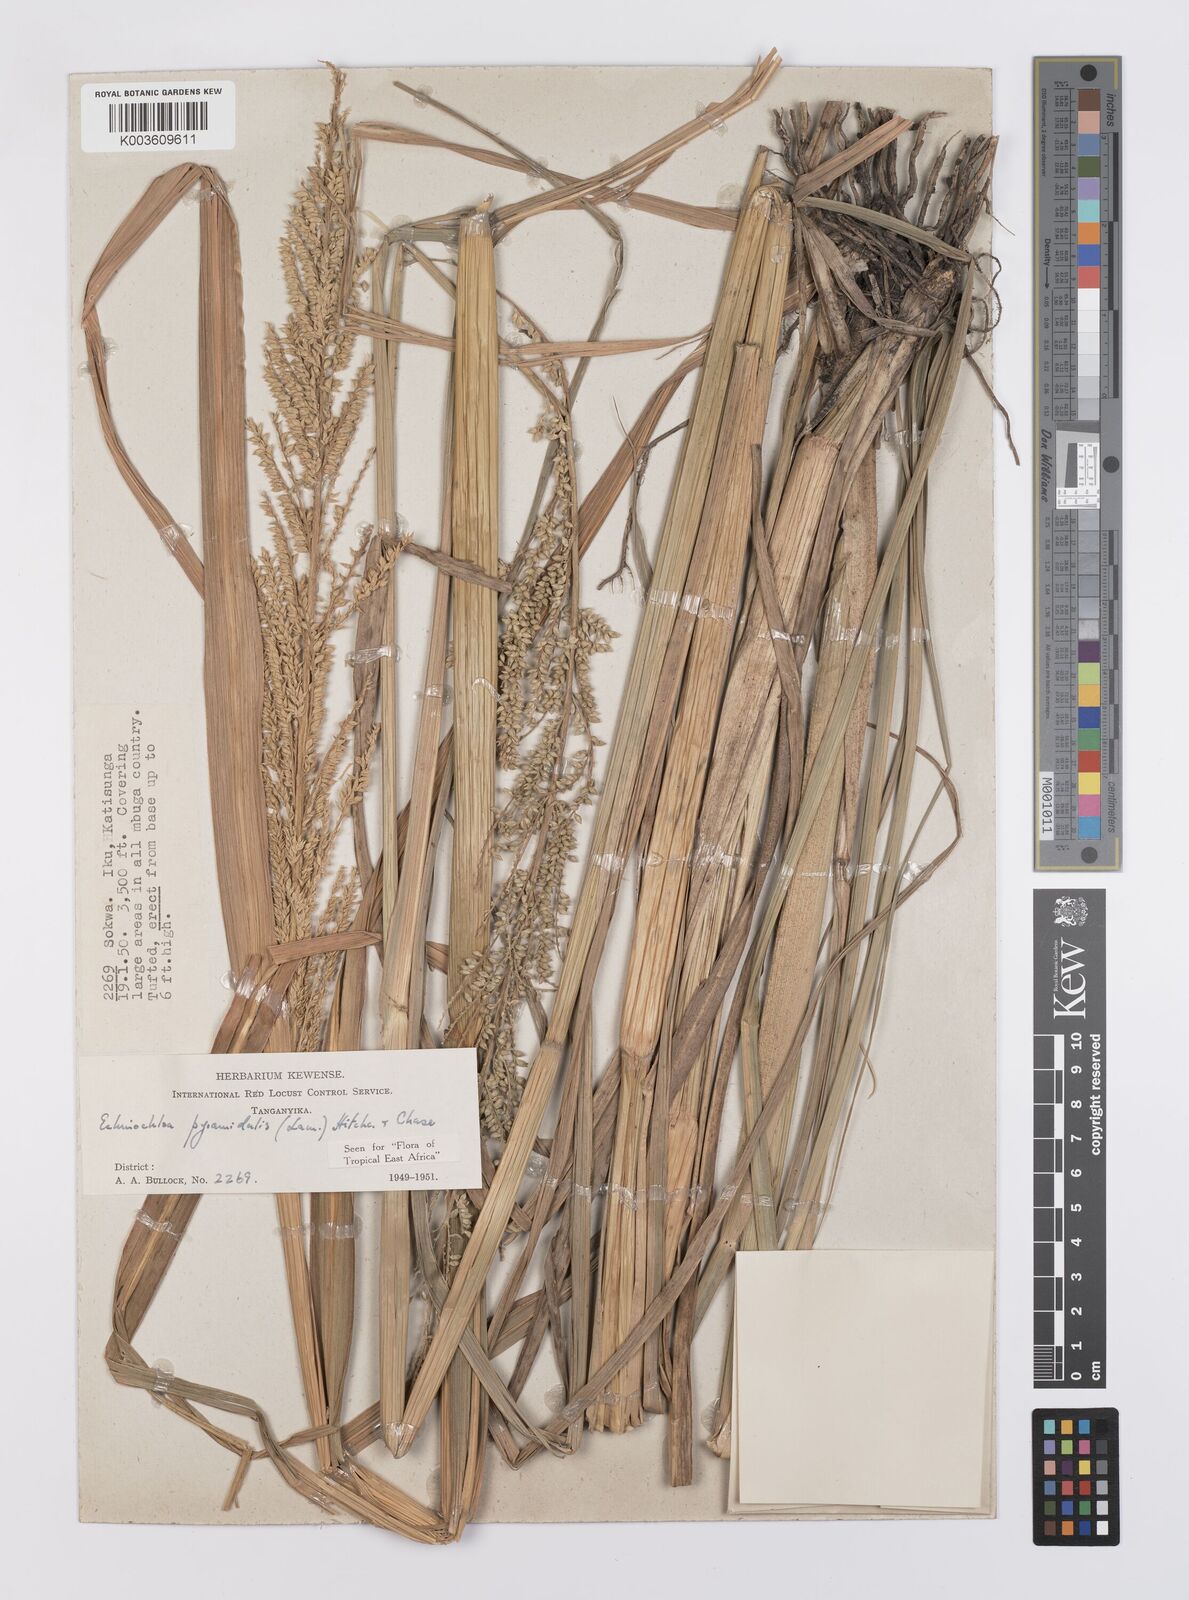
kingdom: Plantae
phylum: Tracheophyta
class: Liliopsida
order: Poales
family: Poaceae
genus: Echinochloa
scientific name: Echinochloa pyramidalis
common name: Antelope grass
